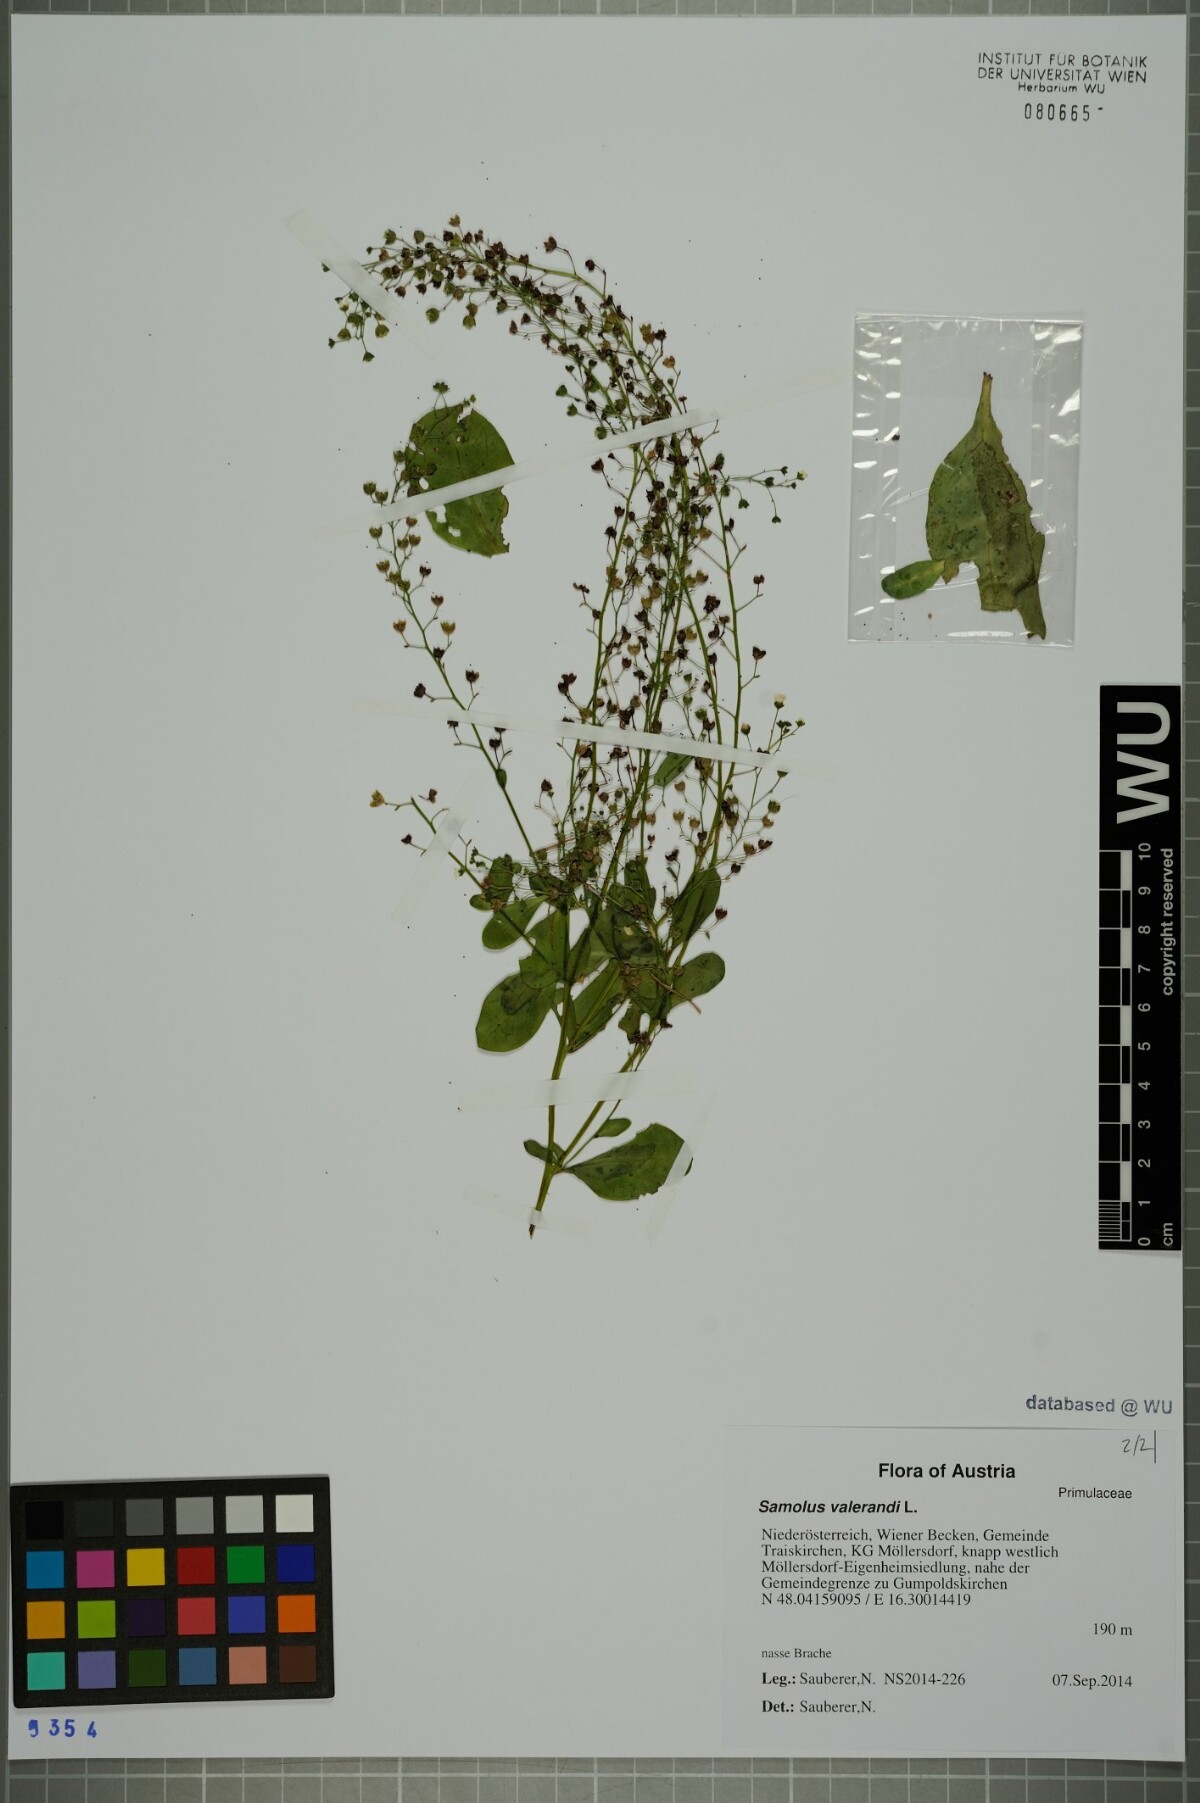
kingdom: Plantae
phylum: Tracheophyta
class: Magnoliopsida
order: Ericales
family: Primulaceae
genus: Samolus
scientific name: Samolus valerandi
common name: Brookweed
